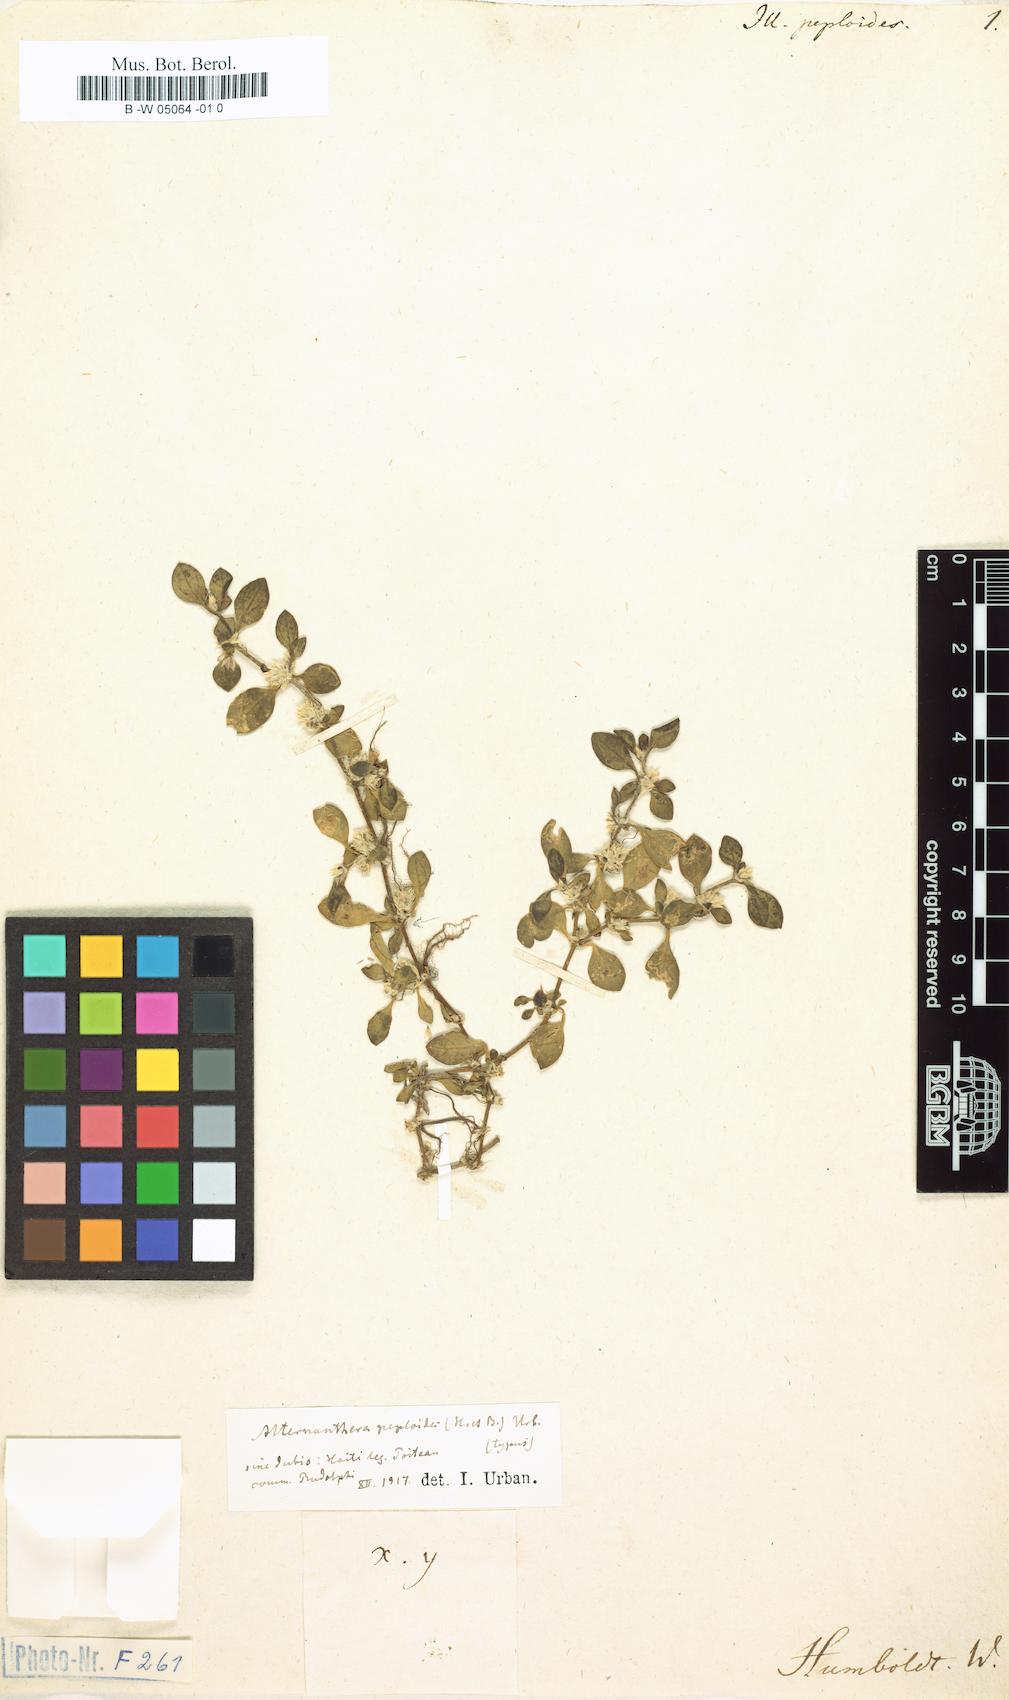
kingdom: Plantae
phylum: Tracheophyta
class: Magnoliopsida
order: Caryophyllales
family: Amaranthaceae
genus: Alternanthera
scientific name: Alternanthera caracasana
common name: Washerwoman
